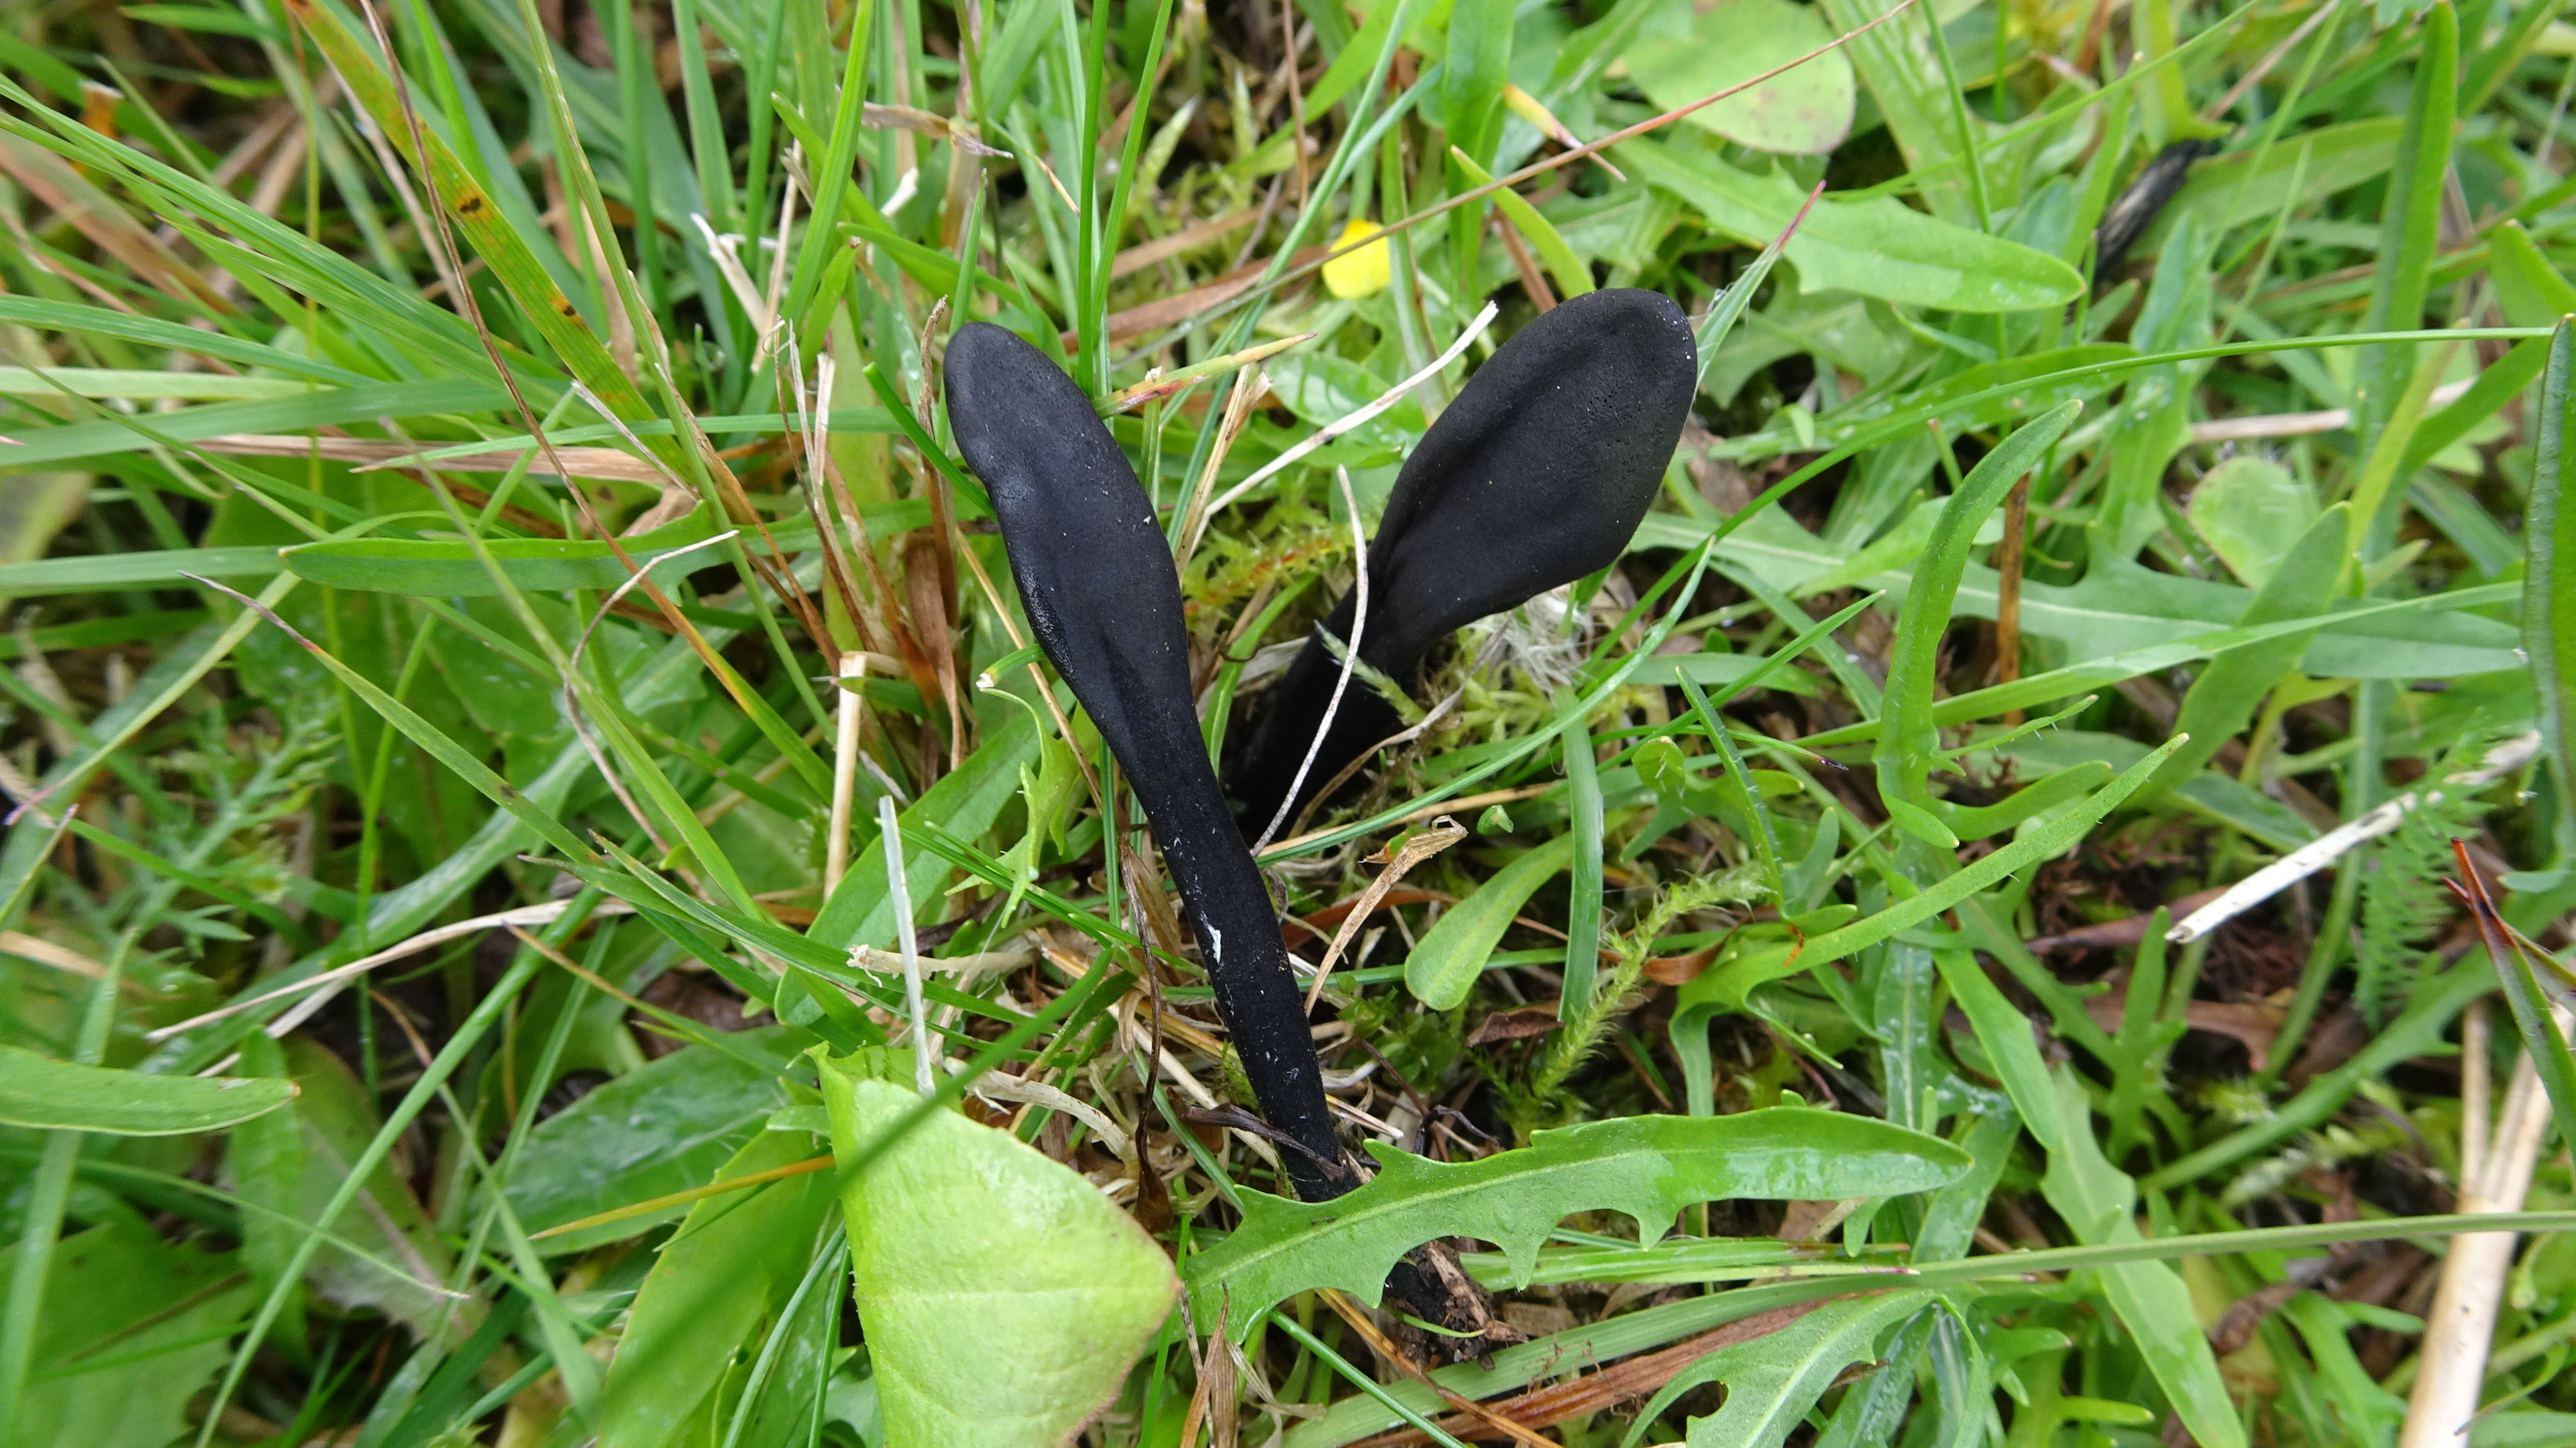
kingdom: Fungi
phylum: Ascomycota
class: Geoglossomycetes
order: Geoglossales
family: Geoglossaceae
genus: Geoglossum
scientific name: Geoglossum
